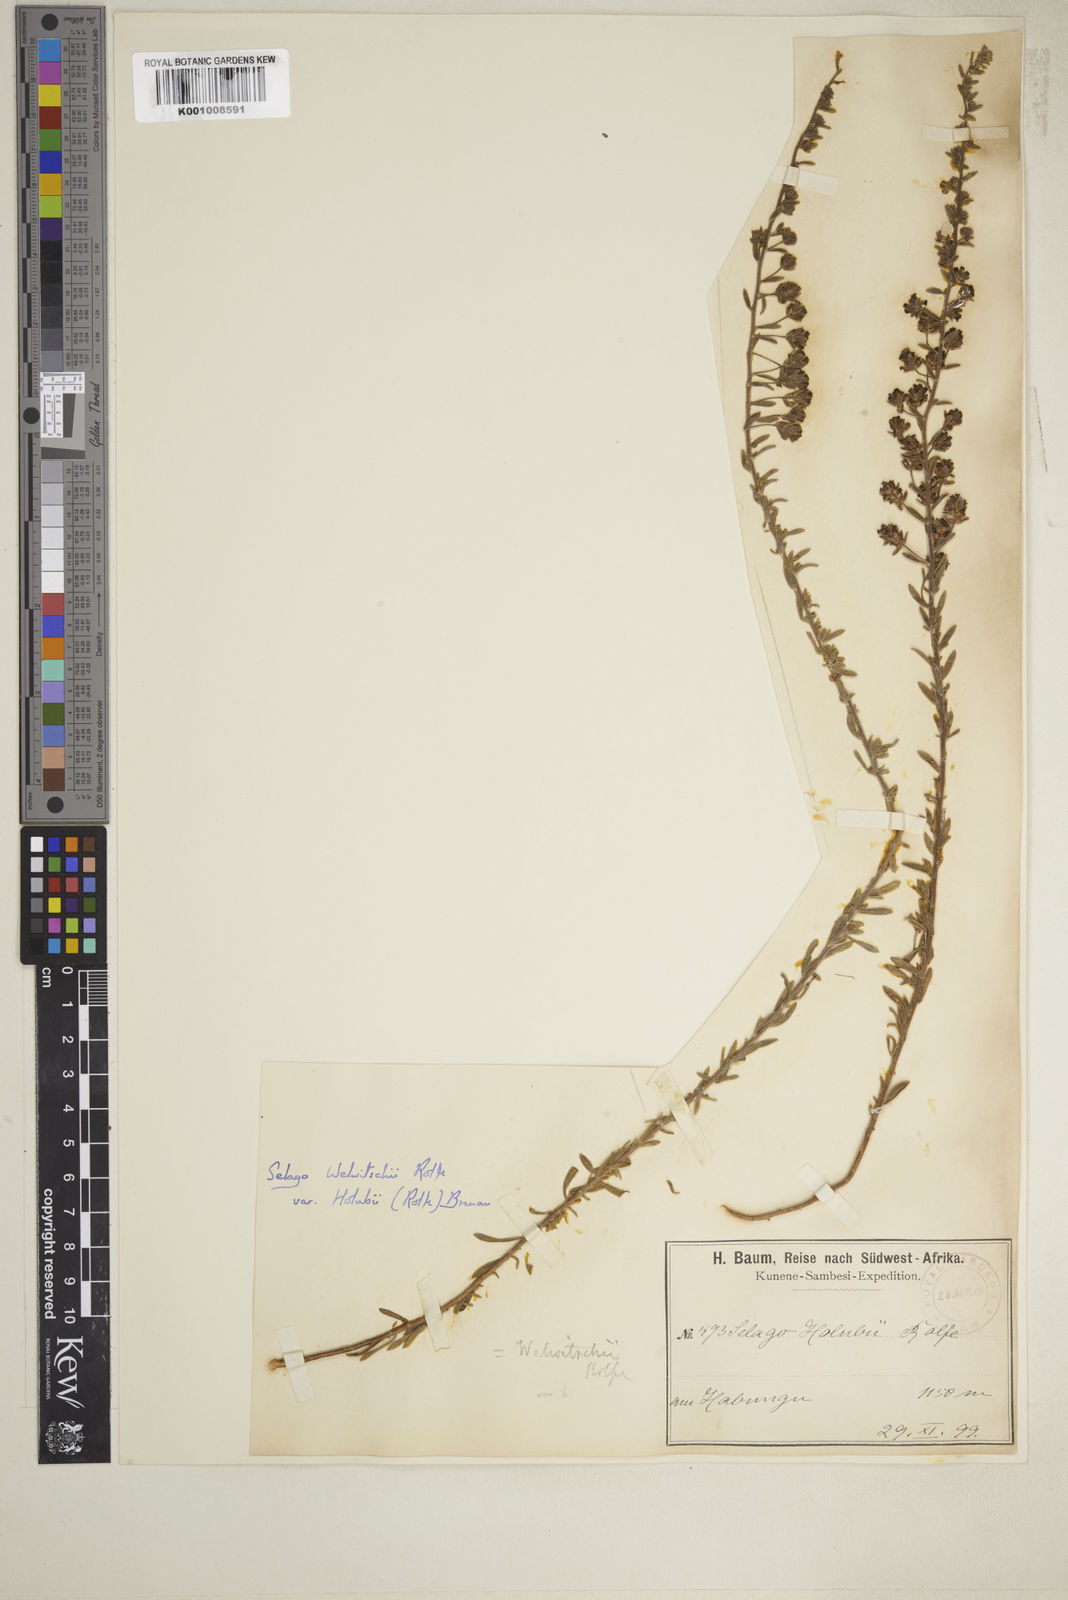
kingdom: Plantae
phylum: Tracheophyta
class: Magnoliopsida
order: Lamiales
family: Scrophulariaceae
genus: Selago
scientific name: Selago welwitschii
